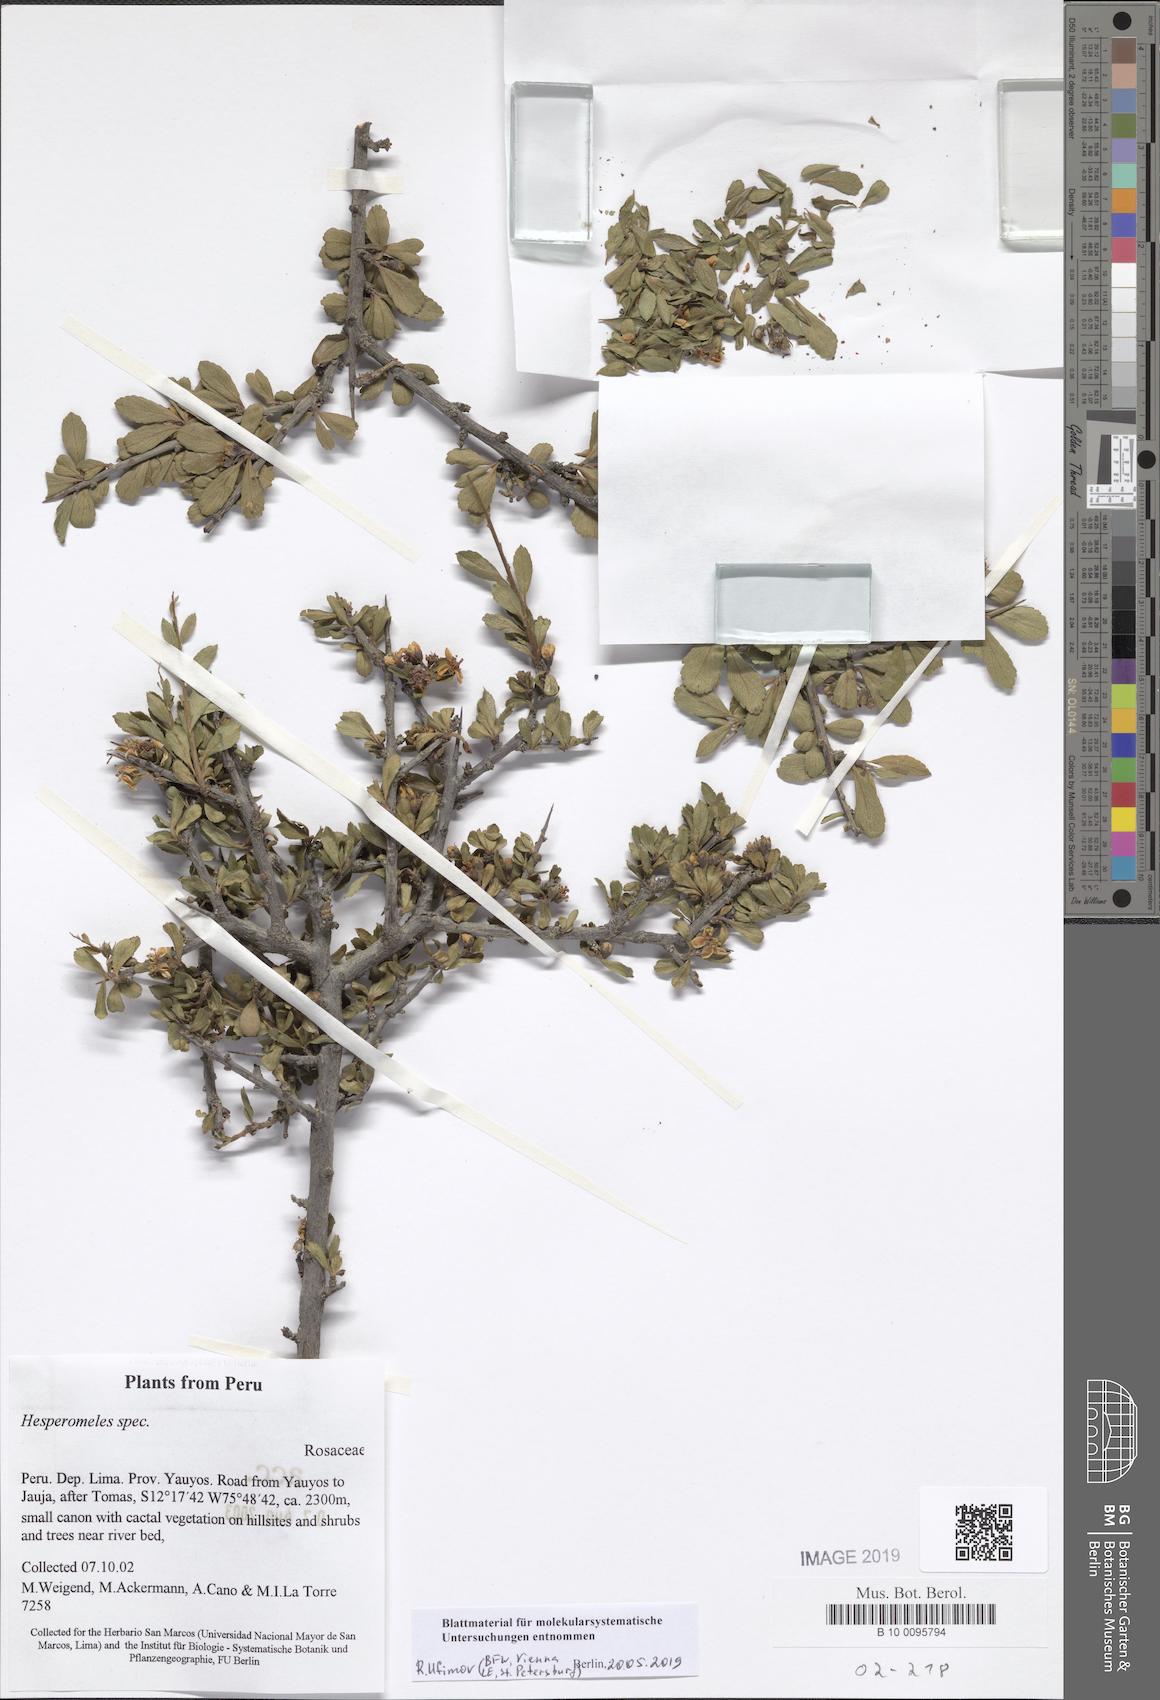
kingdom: Plantae
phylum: Tracheophyta
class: Magnoliopsida
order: Rosales
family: Rosaceae
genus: Hesperomeles
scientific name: Hesperomeles
